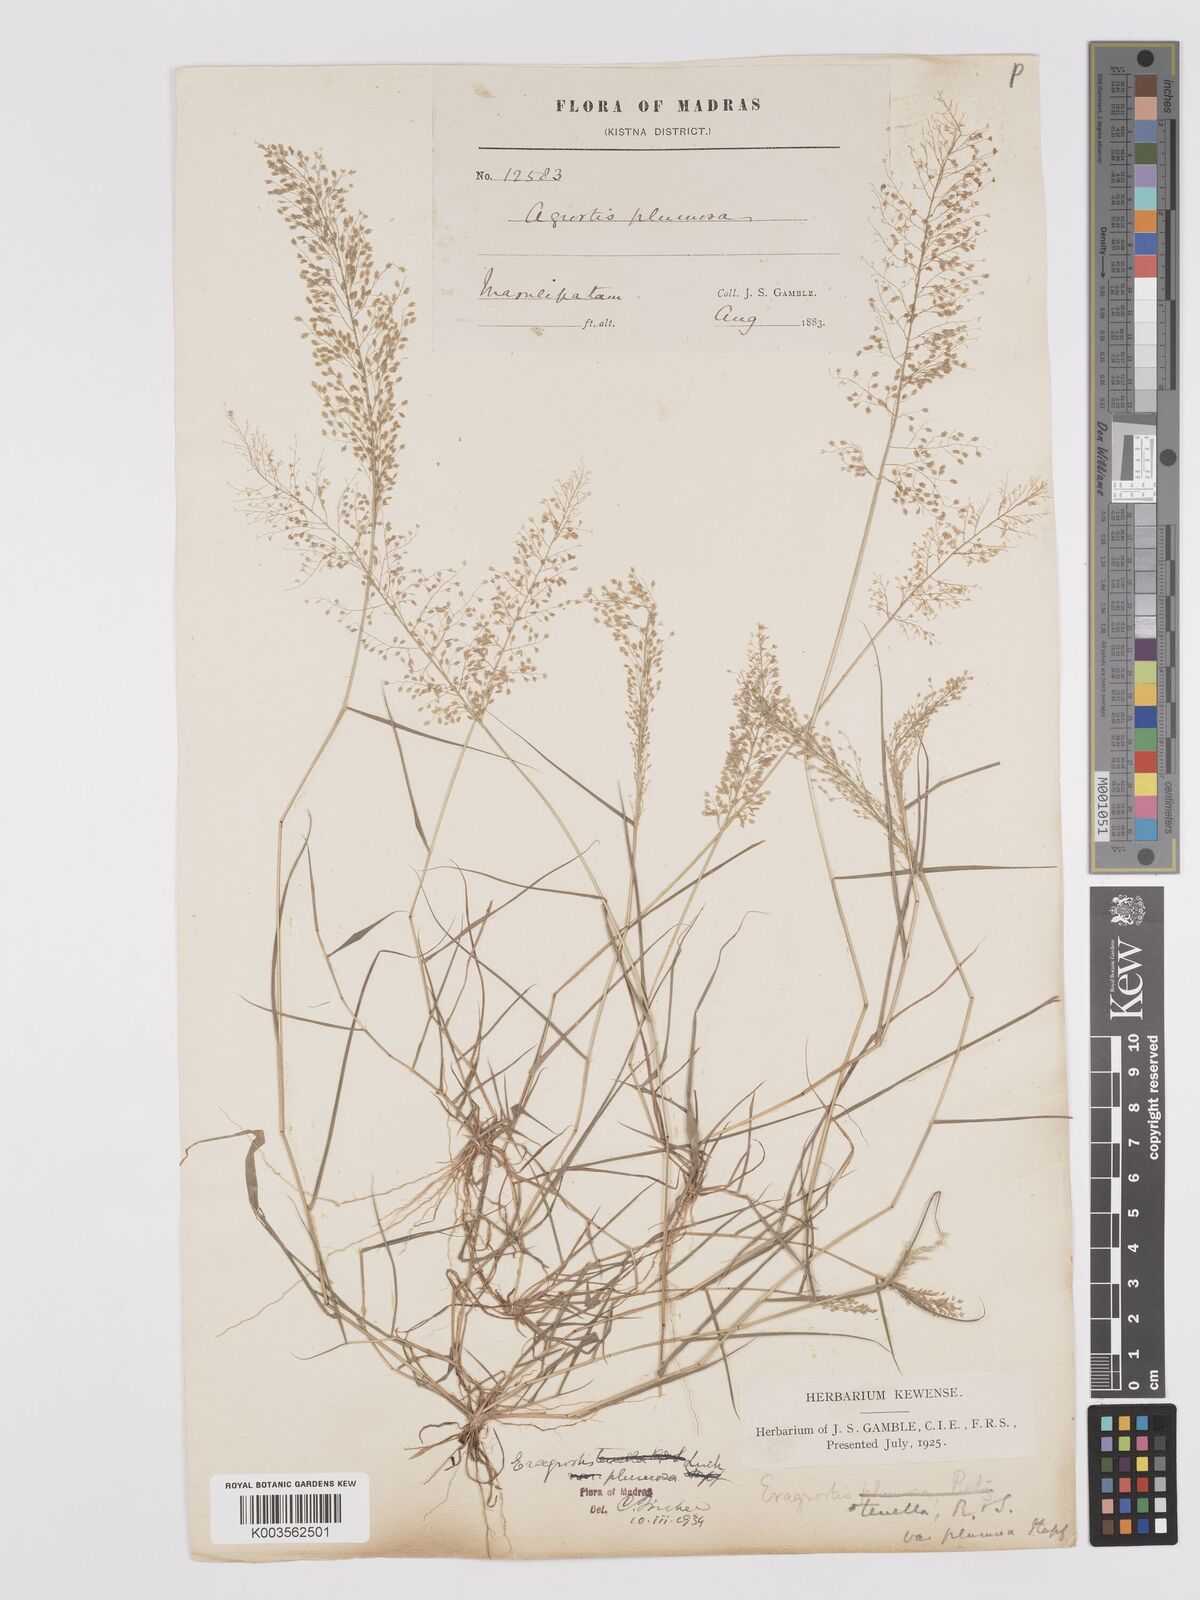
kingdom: Plantae
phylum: Tracheophyta
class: Liliopsida
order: Poales
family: Poaceae
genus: Eragrostis
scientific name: Eragrostis tenella
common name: Japanese lovegrass
